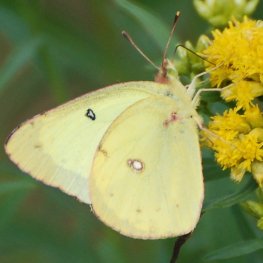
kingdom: Animalia
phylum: Arthropoda
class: Insecta
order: Lepidoptera
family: Pieridae
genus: Colias
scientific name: Colias philodice
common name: Clouded Sulphur
